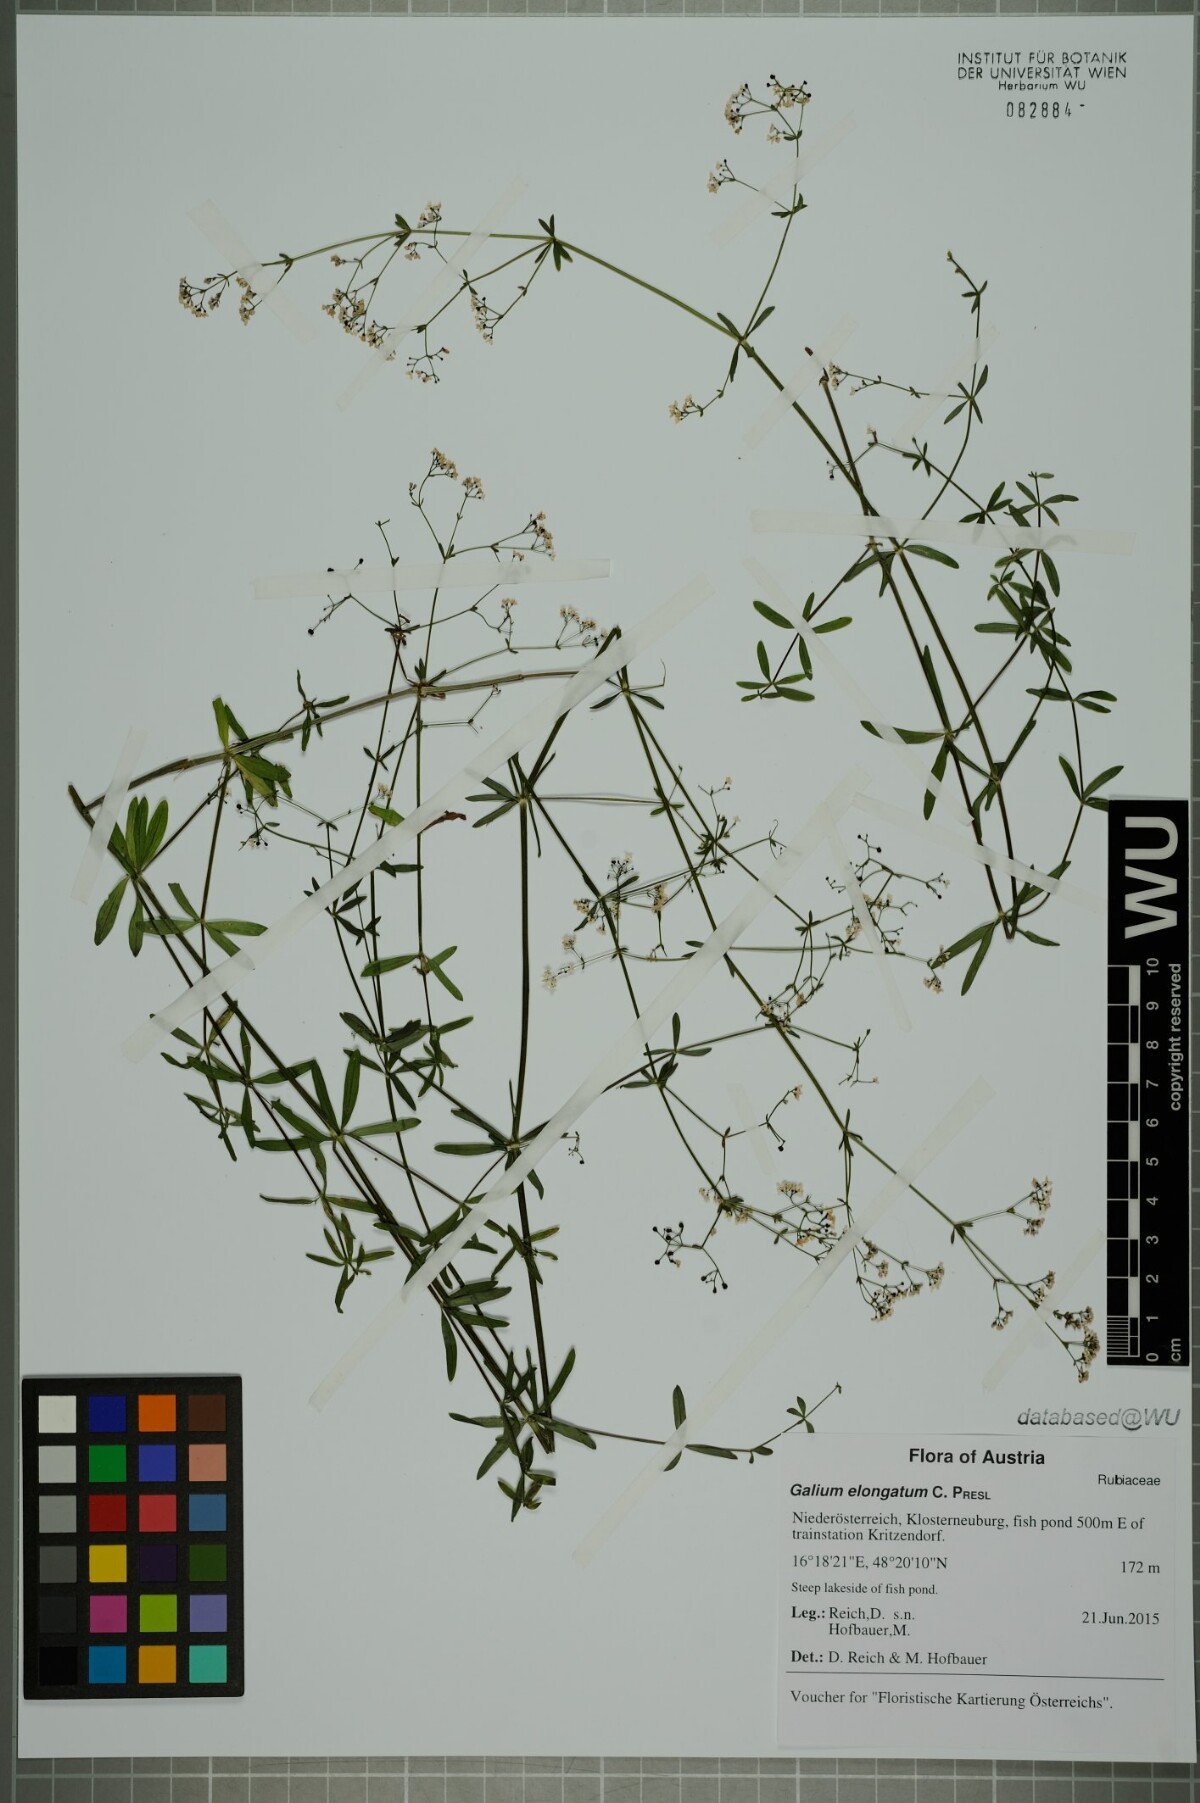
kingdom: Plantae
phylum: Tracheophyta
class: Magnoliopsida
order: Gentianales
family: Rubiaceae
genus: Galium
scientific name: Galium elongatum
